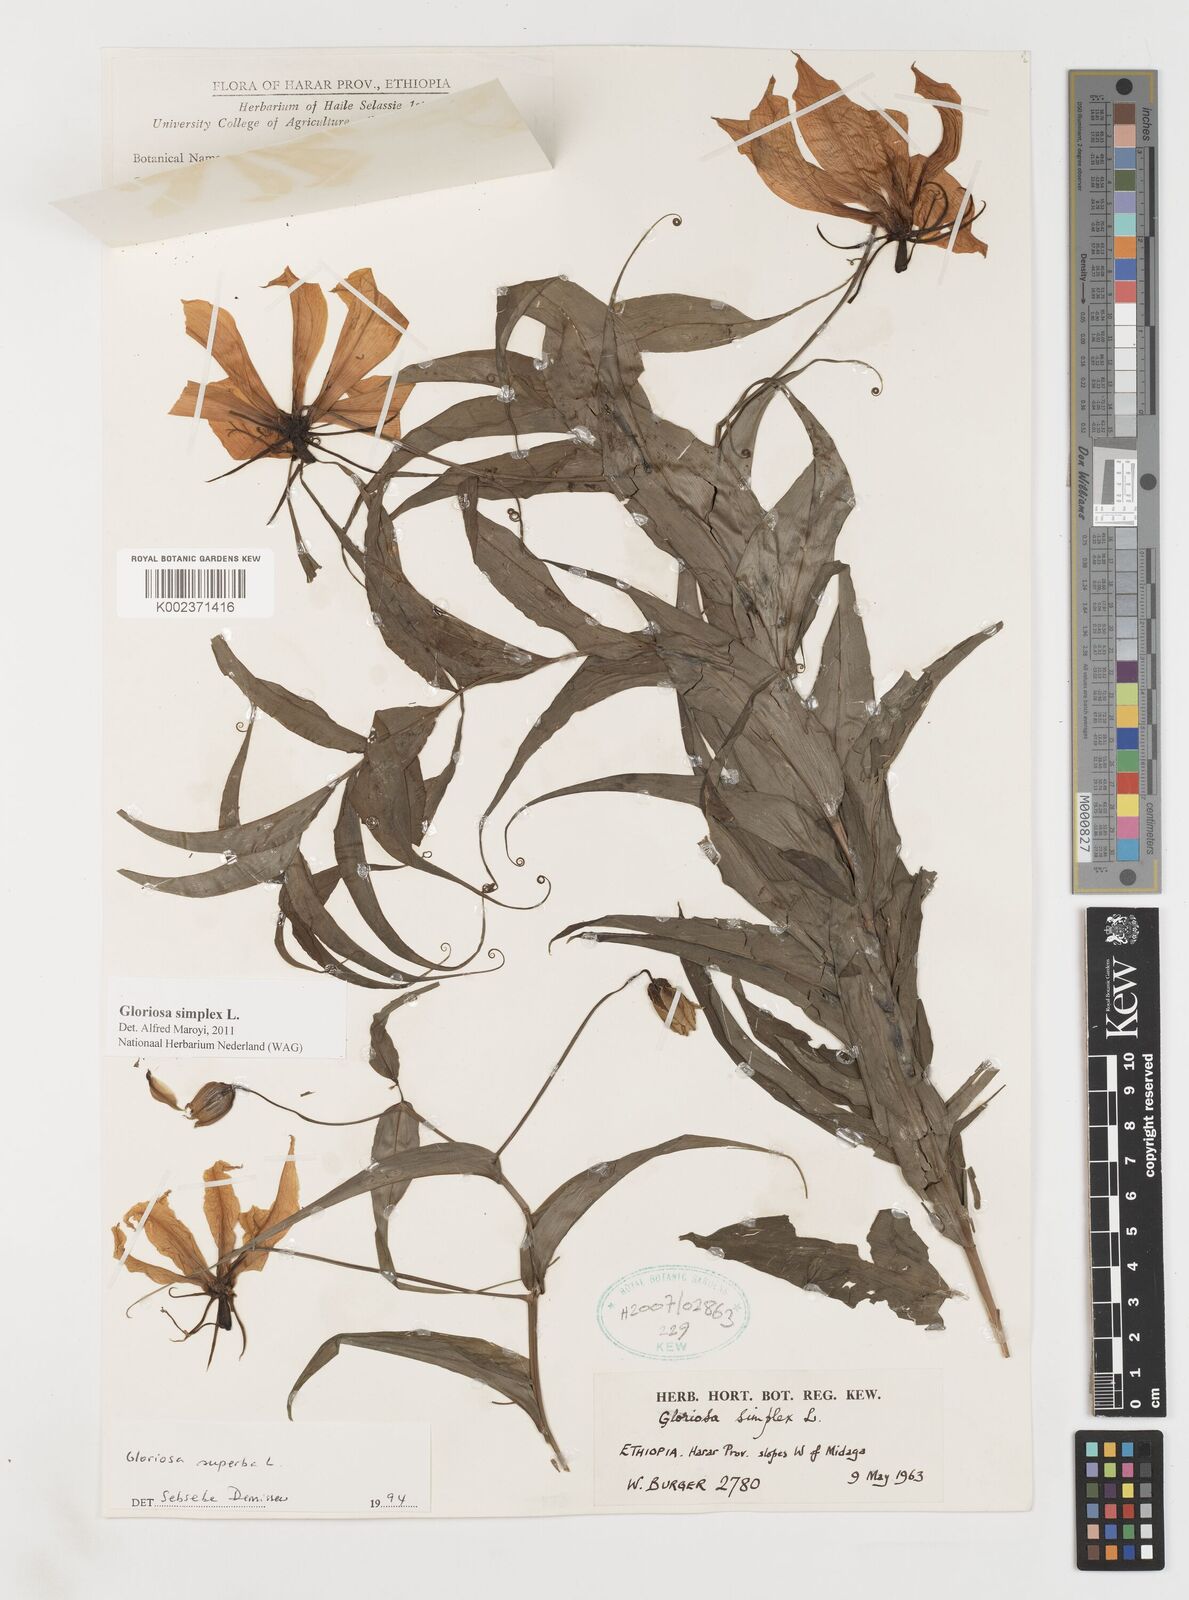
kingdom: Plantae
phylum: Tracheophyta
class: Liliopsida
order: Liliales
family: Colchicaceae
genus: Gloriosa
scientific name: Gloriosa simplex
